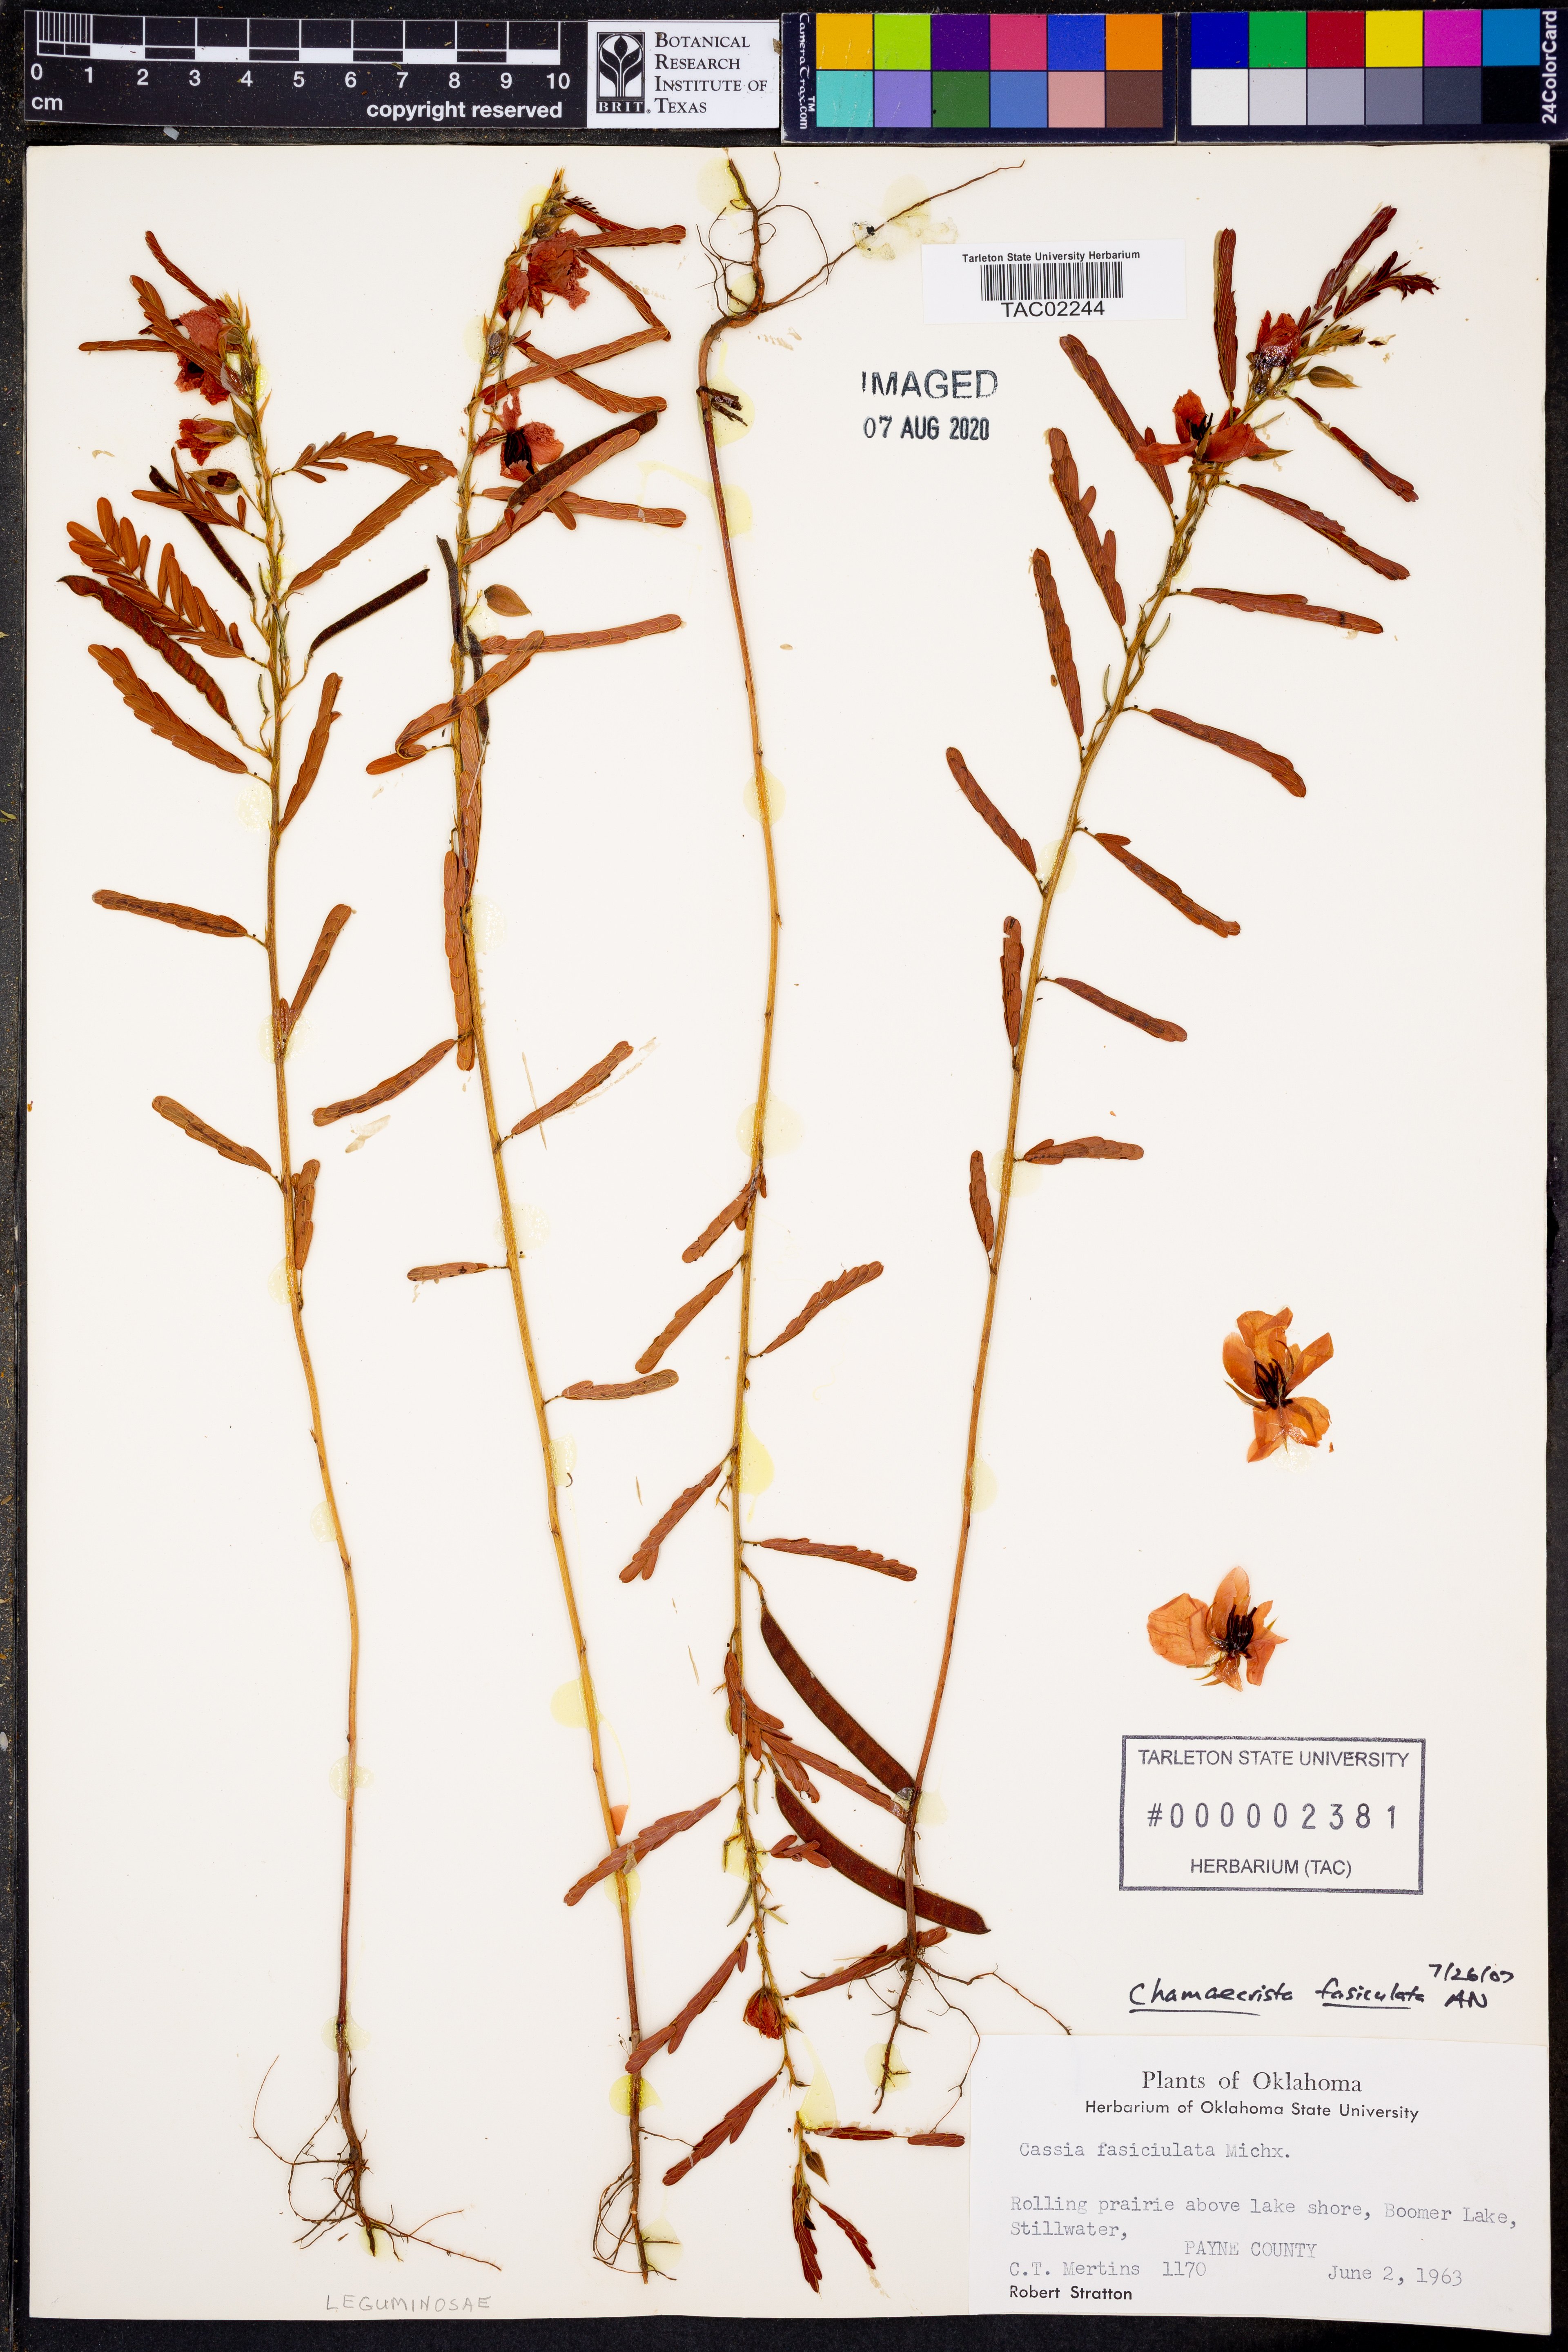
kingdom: Plantae
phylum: Tracheophyta
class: Magnoliopsida
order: Fabales
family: Fabaceae
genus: Chamaecrista
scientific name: Chamaecrista fasciculata
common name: Golden cassia
